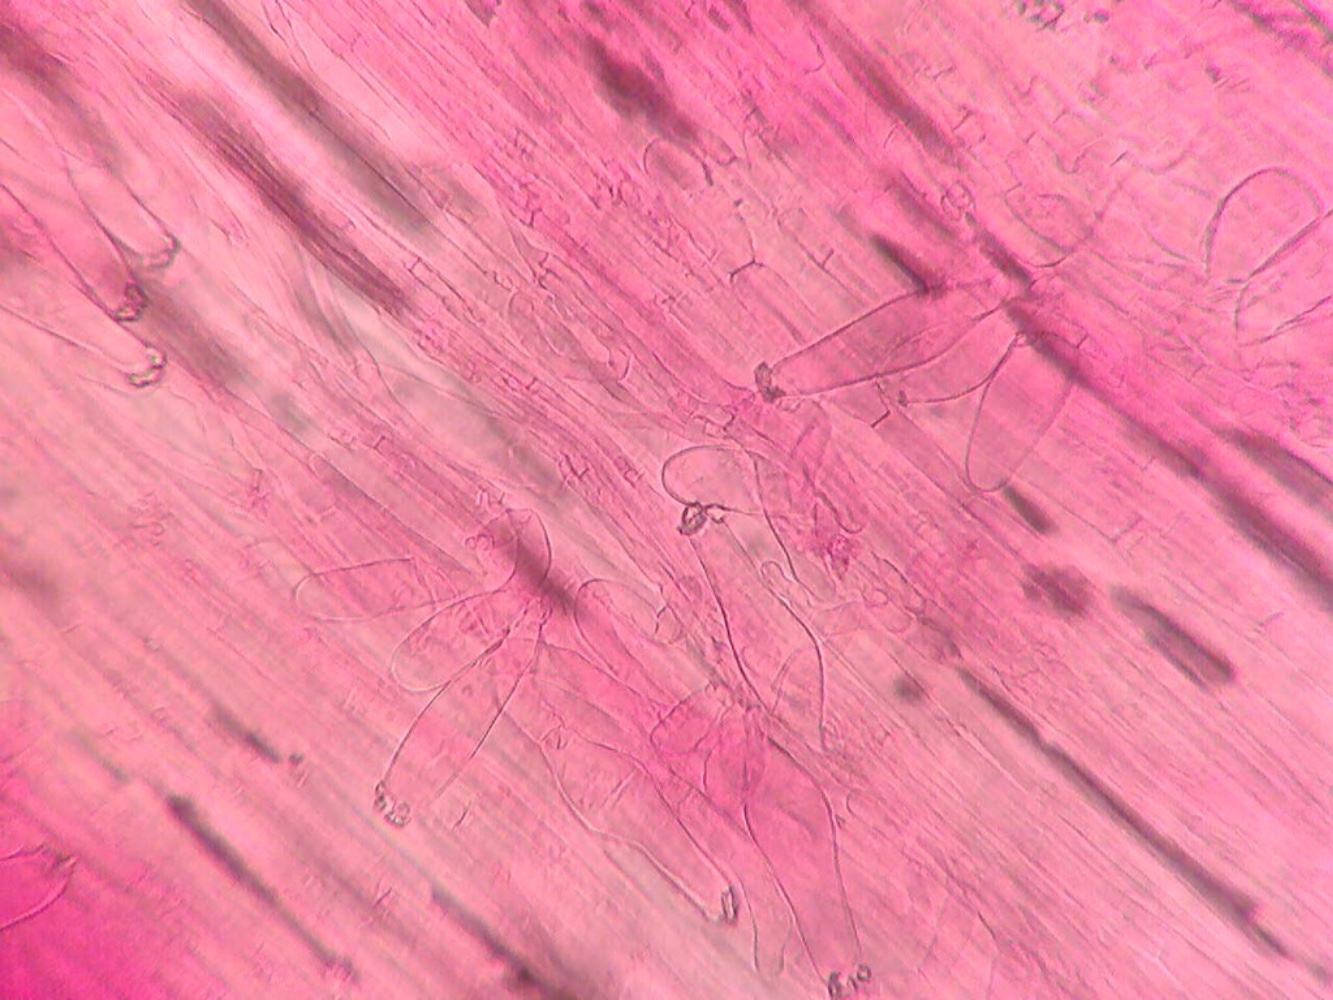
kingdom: Fungi
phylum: Basidiomycota
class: Agaricomycetes
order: Agaricales
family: Inocybaceae
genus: Inocybe
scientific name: Inocybe
